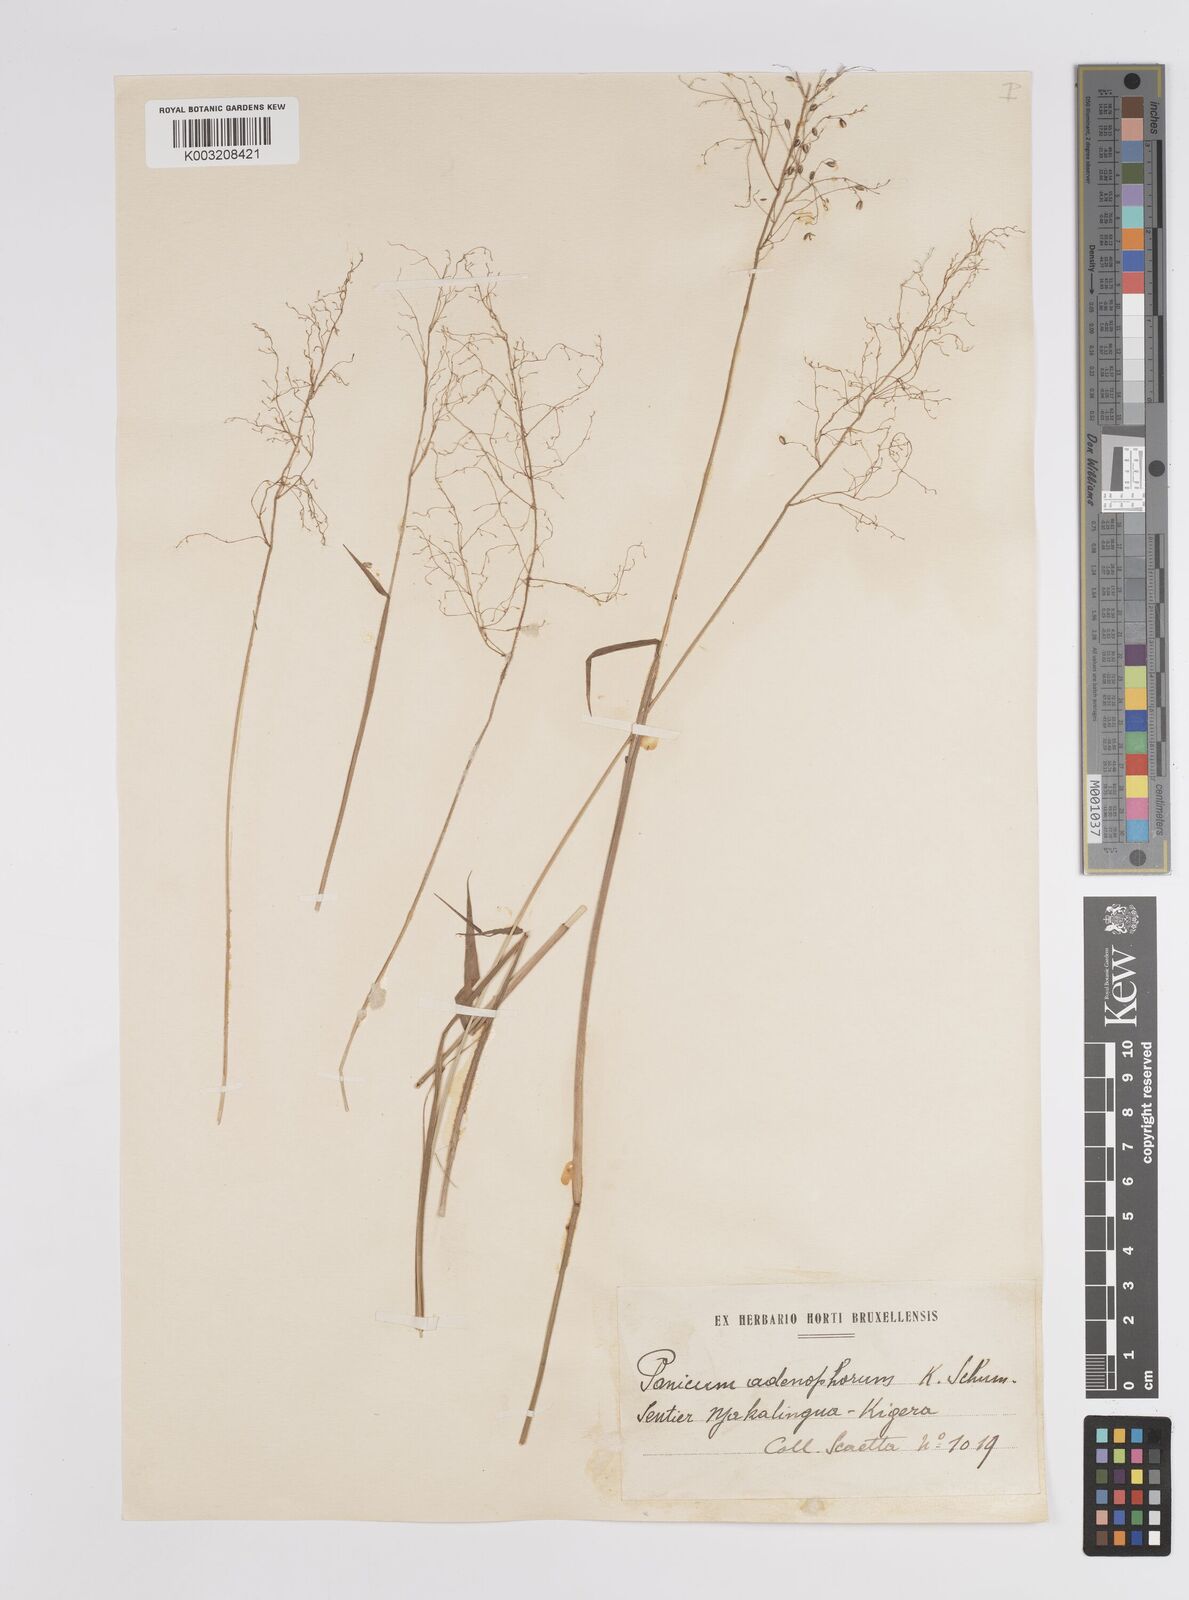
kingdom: Plantae
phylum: Tracheophyta
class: Liliopsida
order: Poales
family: Poaceae
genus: Adenochloa
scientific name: Adenochloa adenophora
